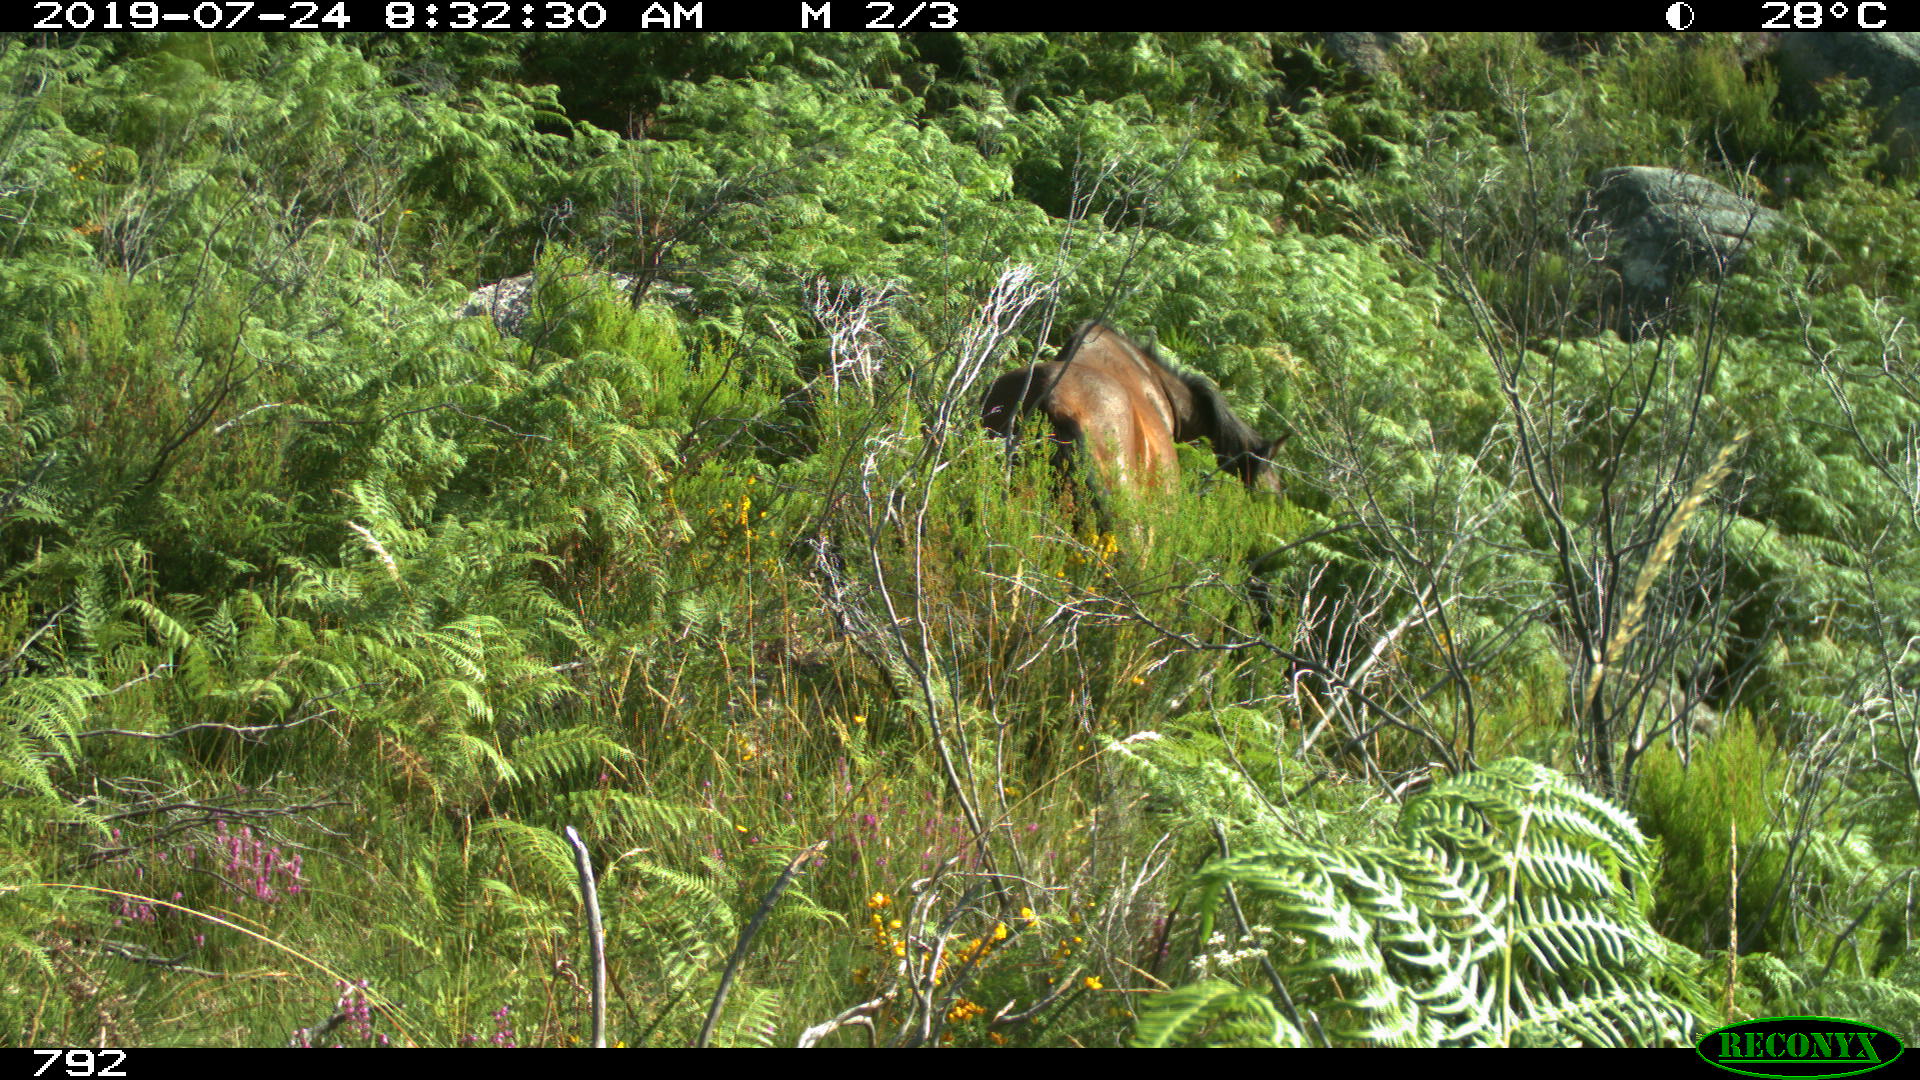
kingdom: Animalia
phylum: Chordata
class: Mammalia
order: Perissodactyla
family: Equidae
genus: Equus
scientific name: Equus caballus
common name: Horse
